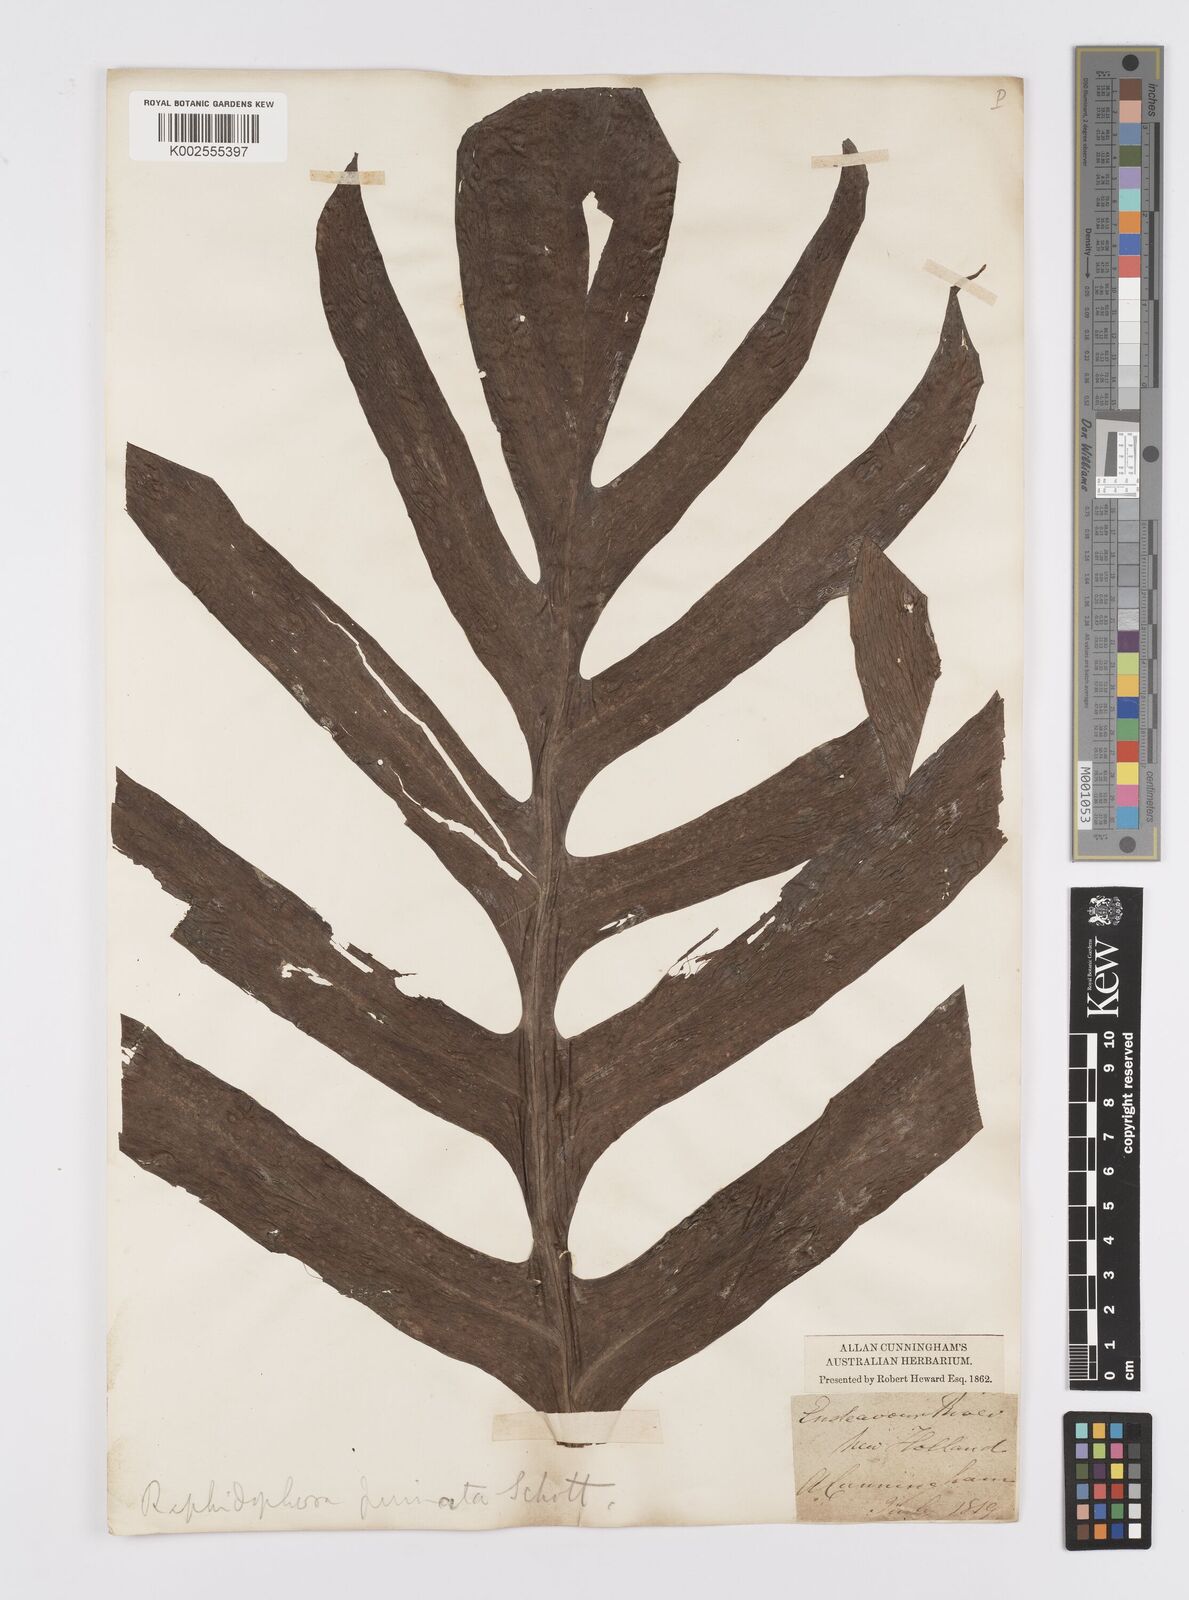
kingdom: Plantae
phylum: Tracheophyta
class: Liliopsida
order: Alismatales
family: Araceae
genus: Epipremnum
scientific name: Epipremnum pinnatum
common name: Centipede tongavine
